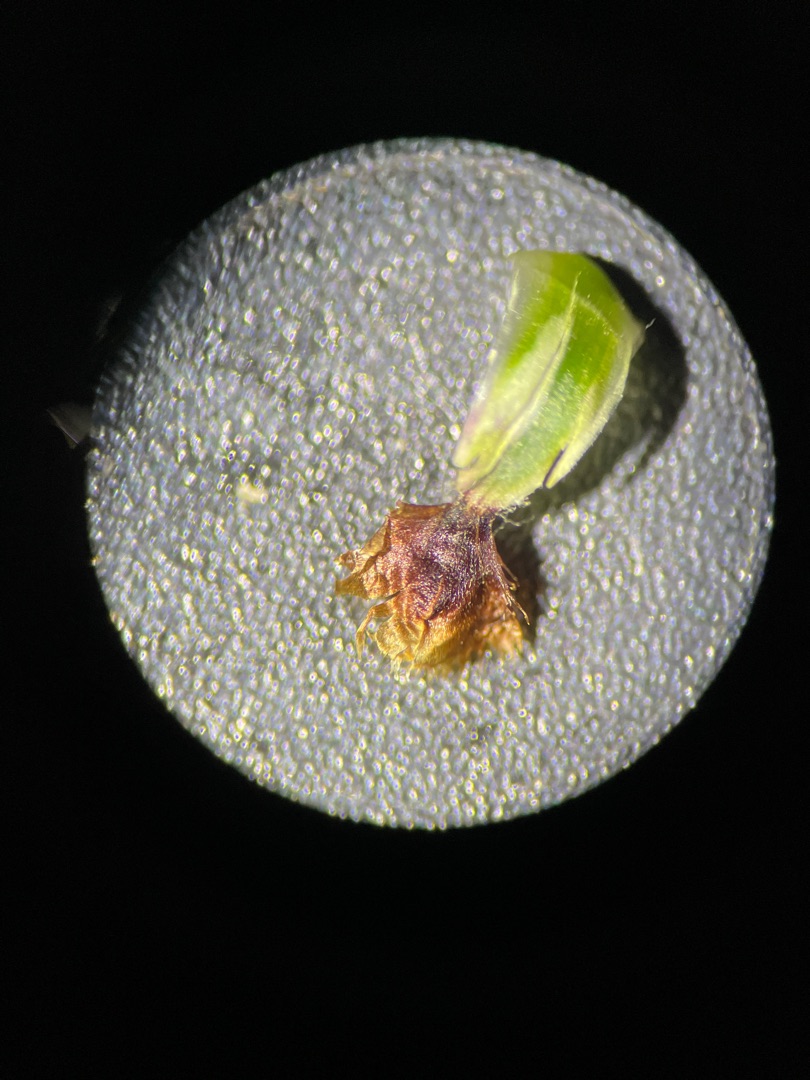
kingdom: Plantae
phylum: Tracheophyta
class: Magnoliopsida
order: Asterales
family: Asteraceae
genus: Centaurea
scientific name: Centaurea jacea
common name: Almindelig knopurt
